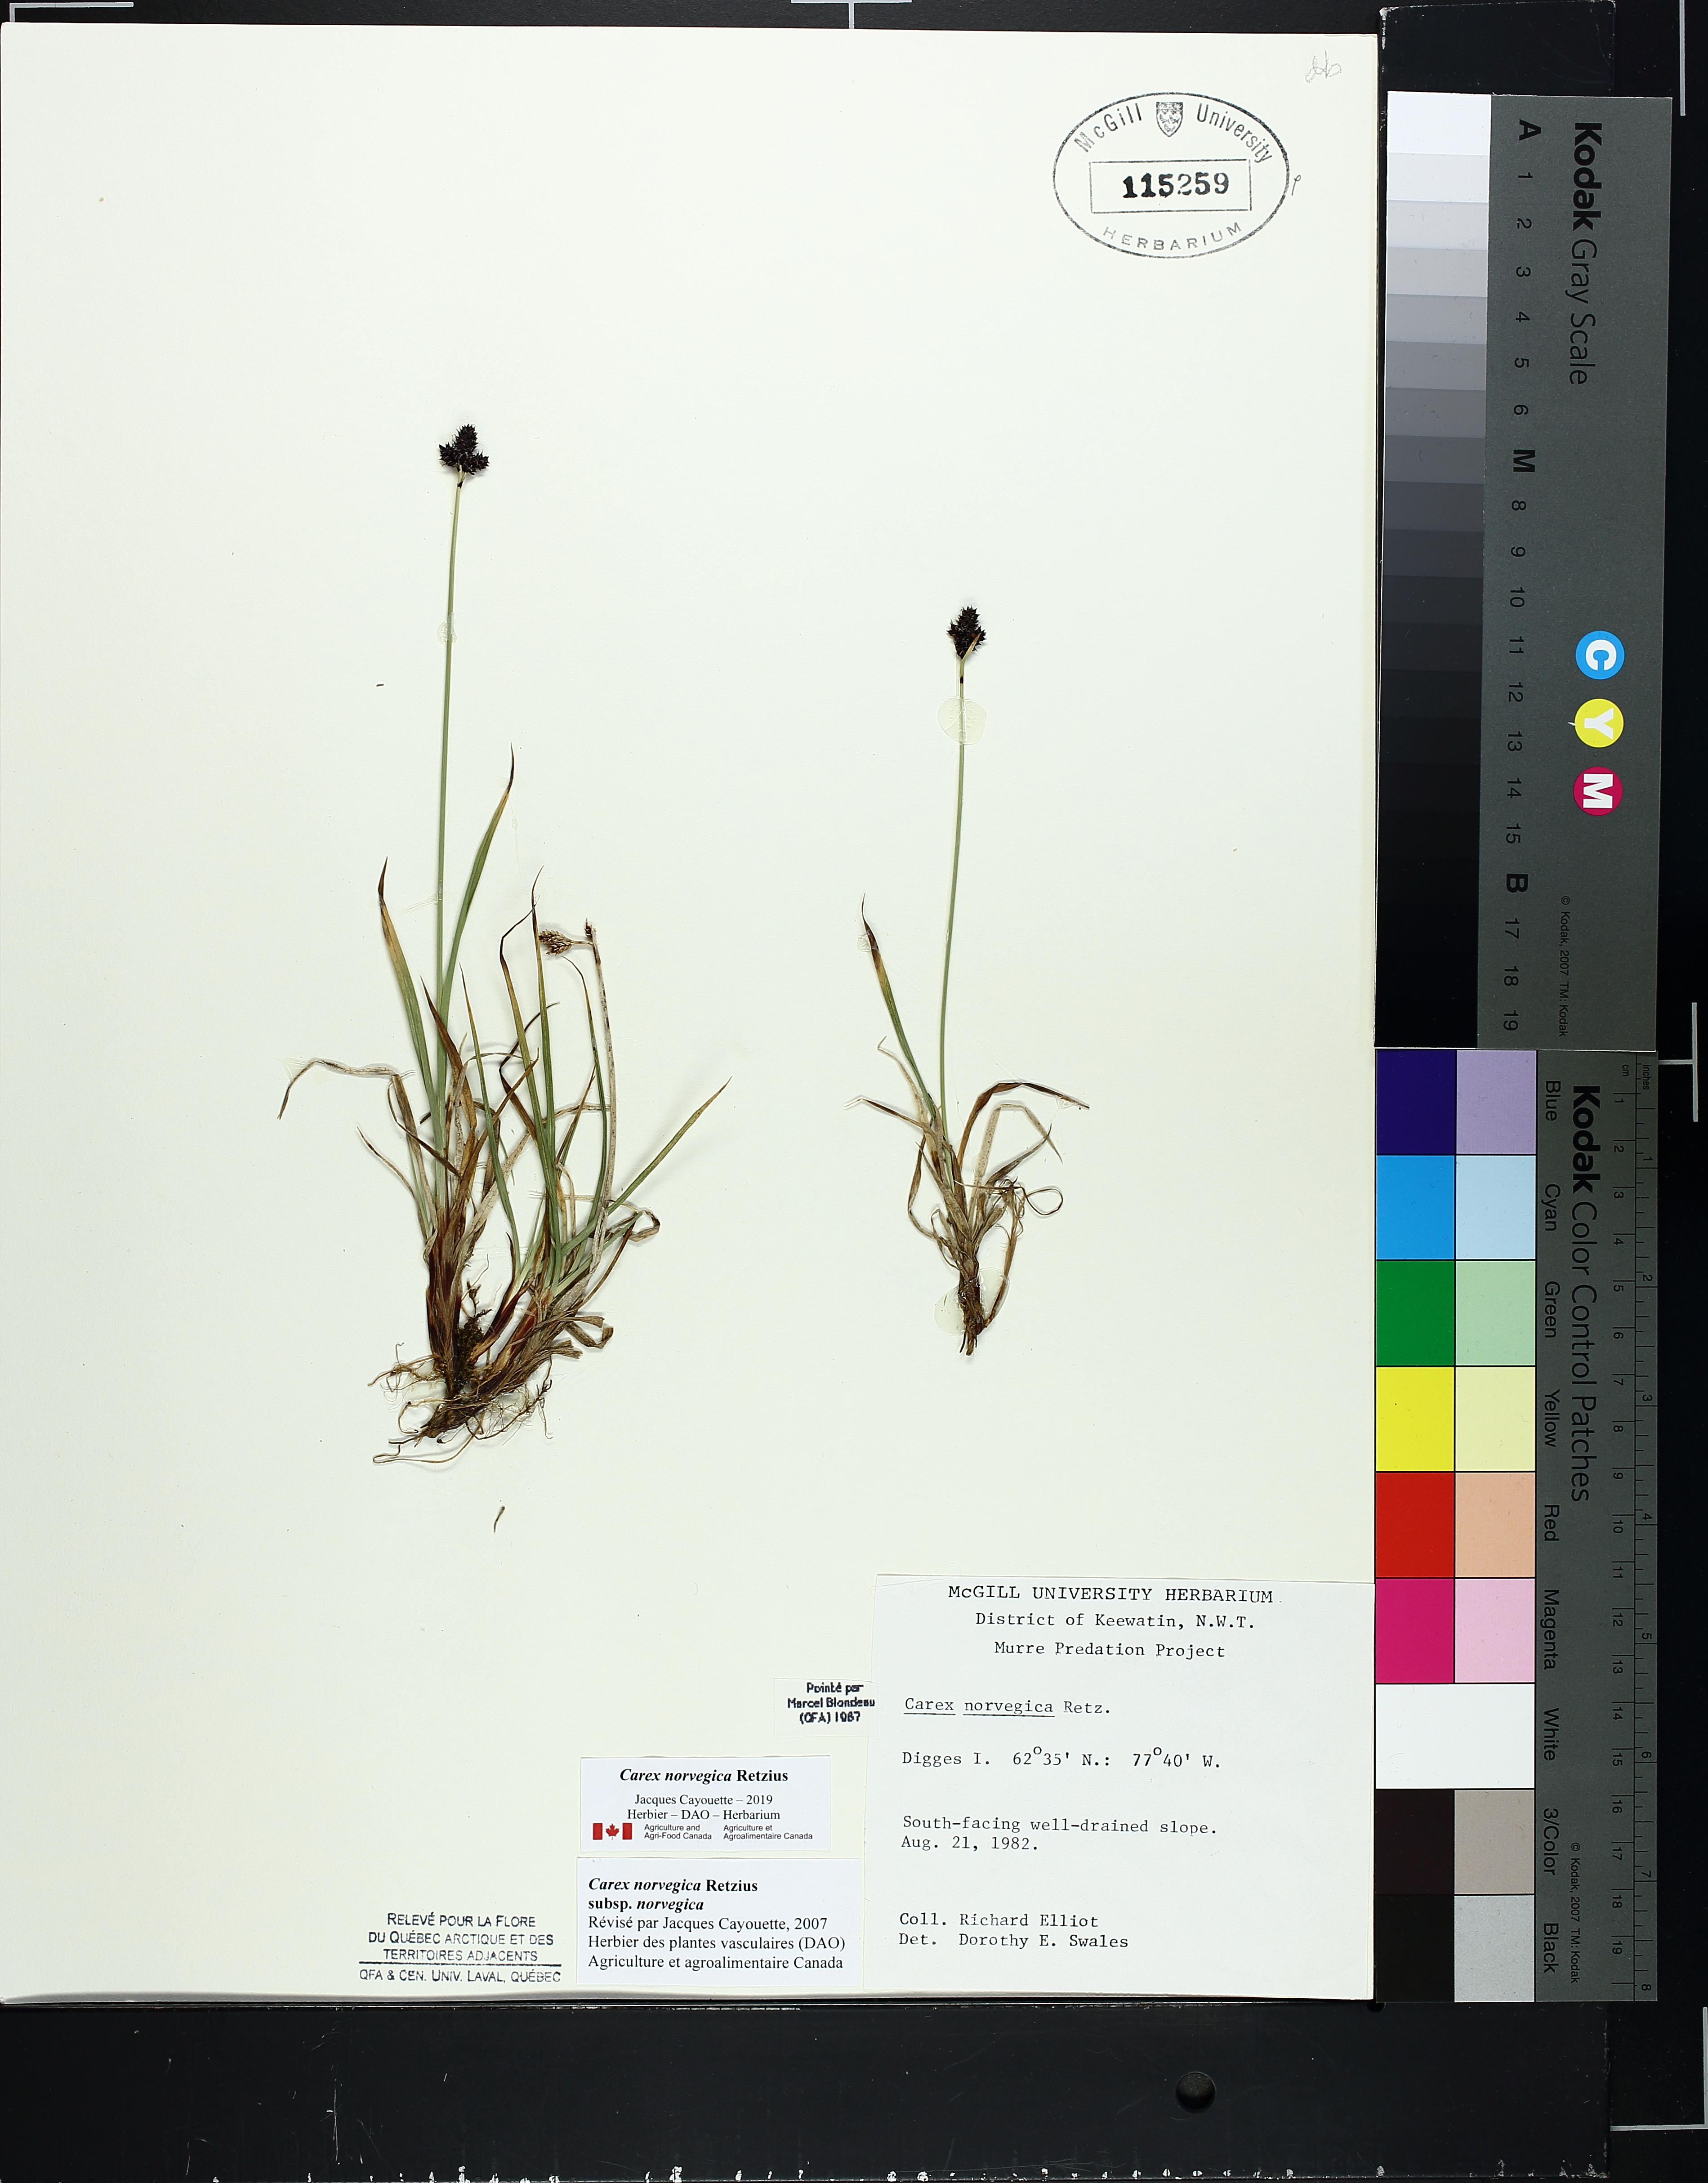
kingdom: Plantae
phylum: Tracheophyta
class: Liliopsida
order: Poales
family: Cyperaceae
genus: Carex
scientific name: Carex norvegica
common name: Close-headed alpine-sedge
